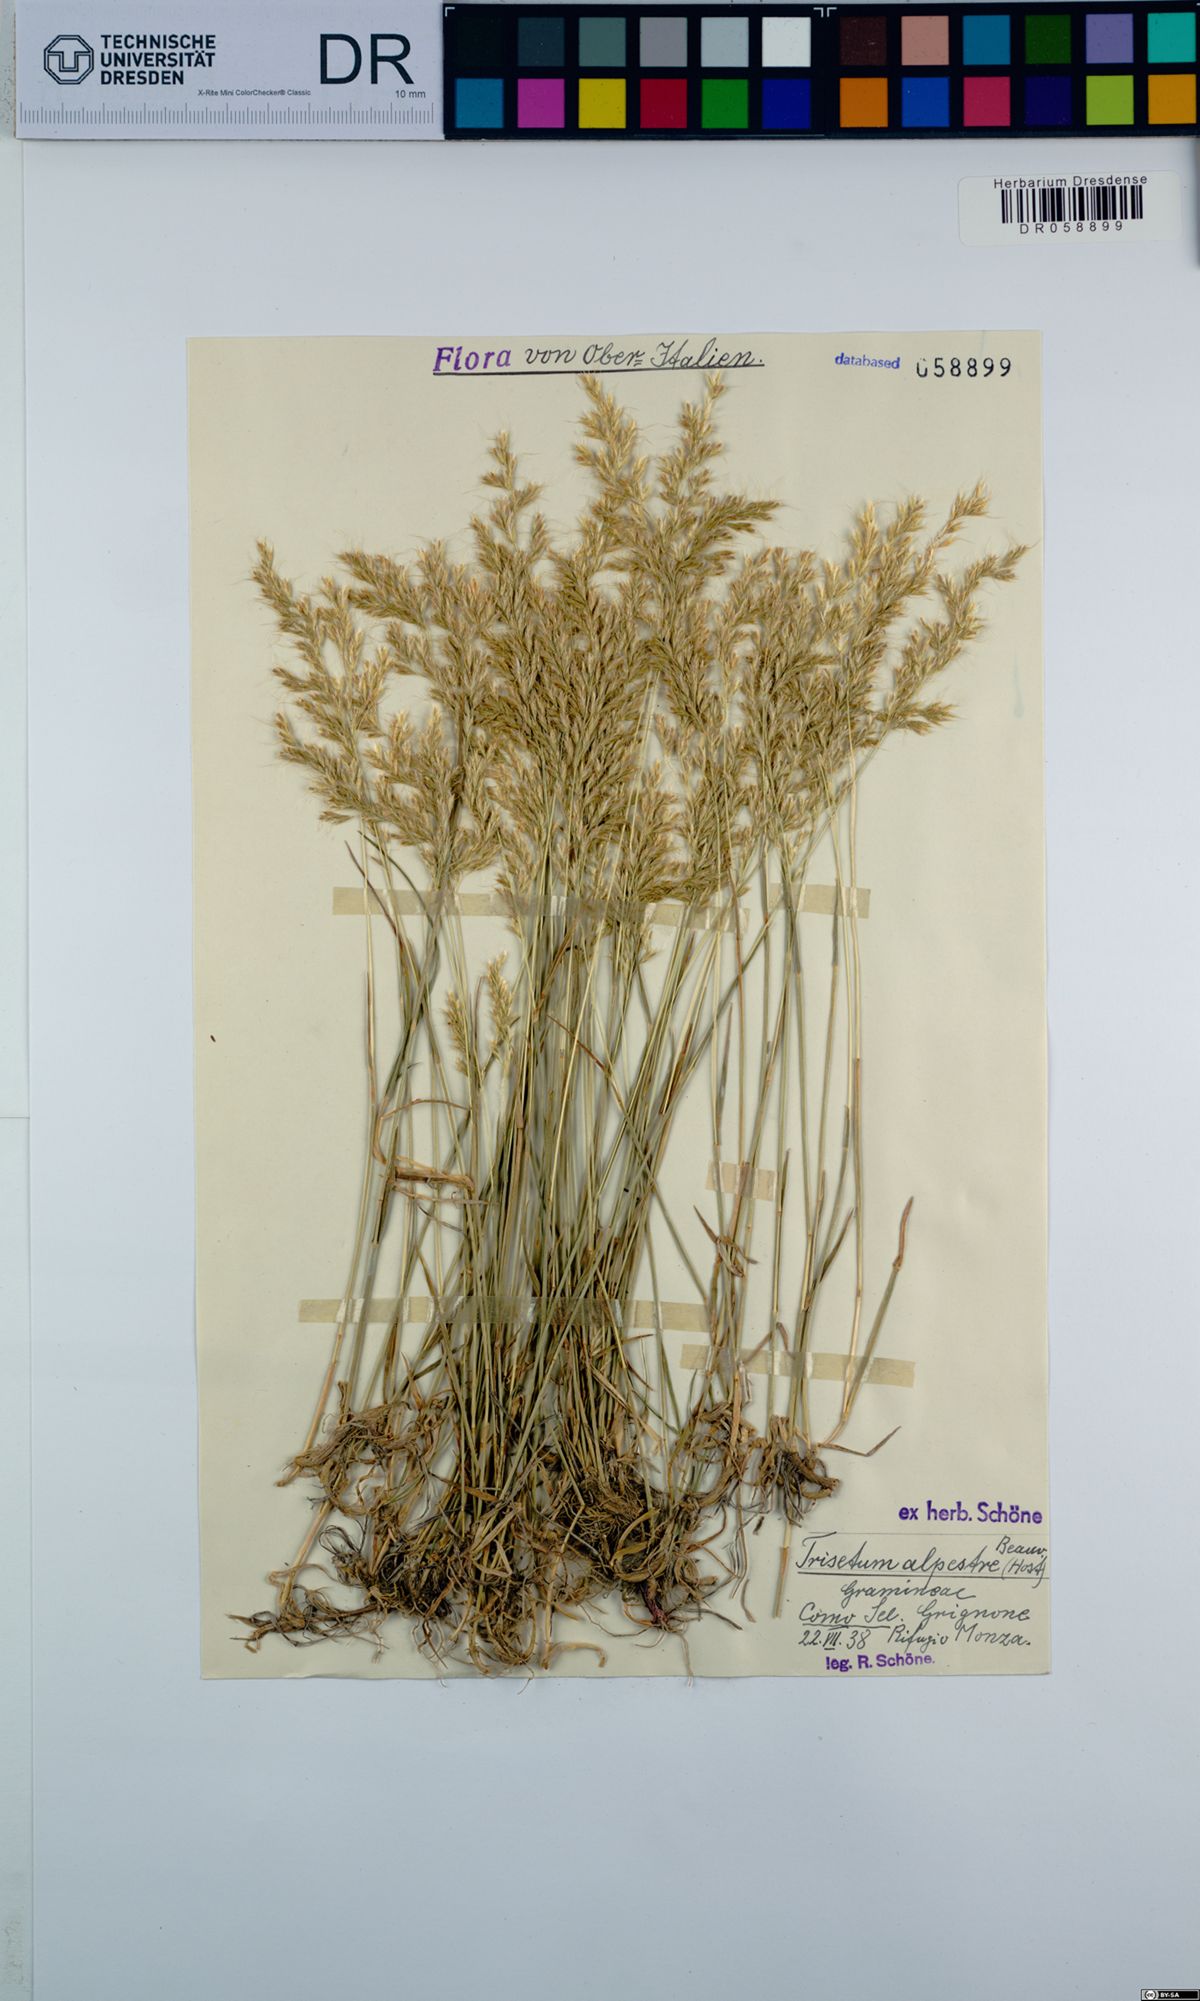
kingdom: Plantae
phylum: Tracheophyta
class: Liliopsida
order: Poales
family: Poaceae
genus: Trisetum
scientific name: Trisetum alpestre
